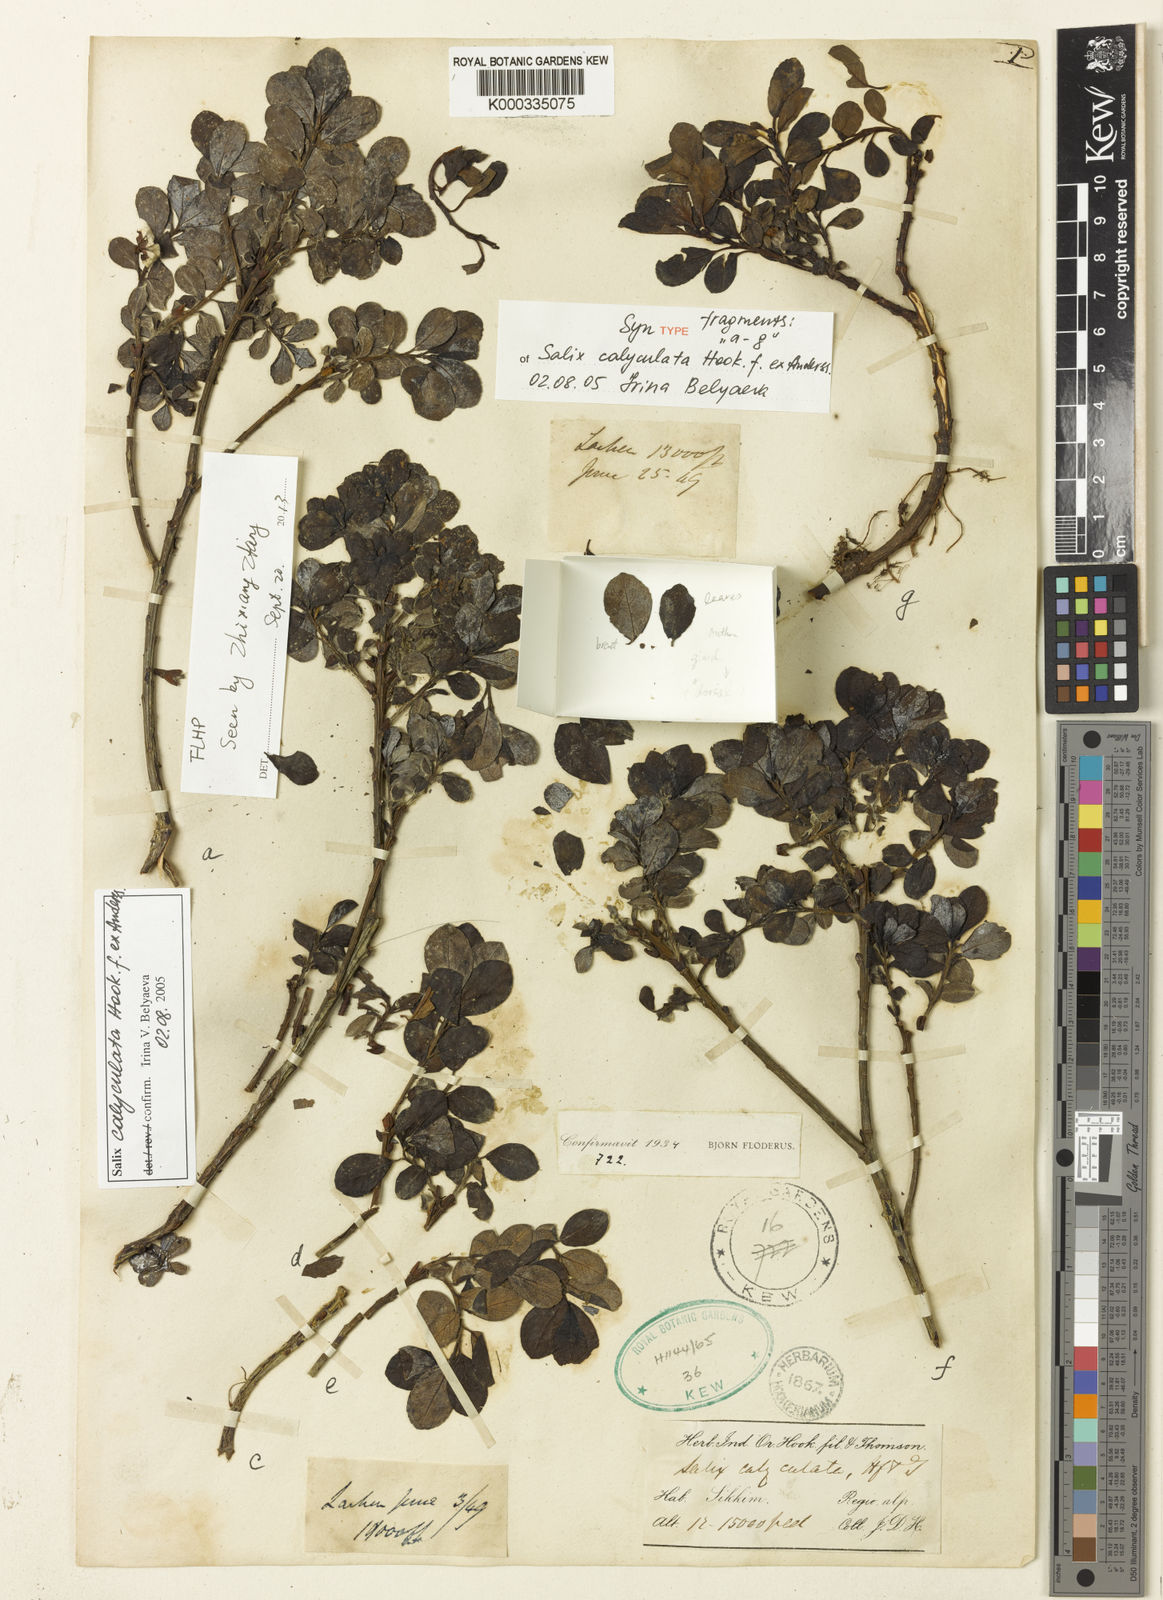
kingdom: Plantae
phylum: Tracheophyta
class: Magnoliopsida
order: Malpighiales
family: Salicaceae
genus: Salix
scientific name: Salix calyculata
